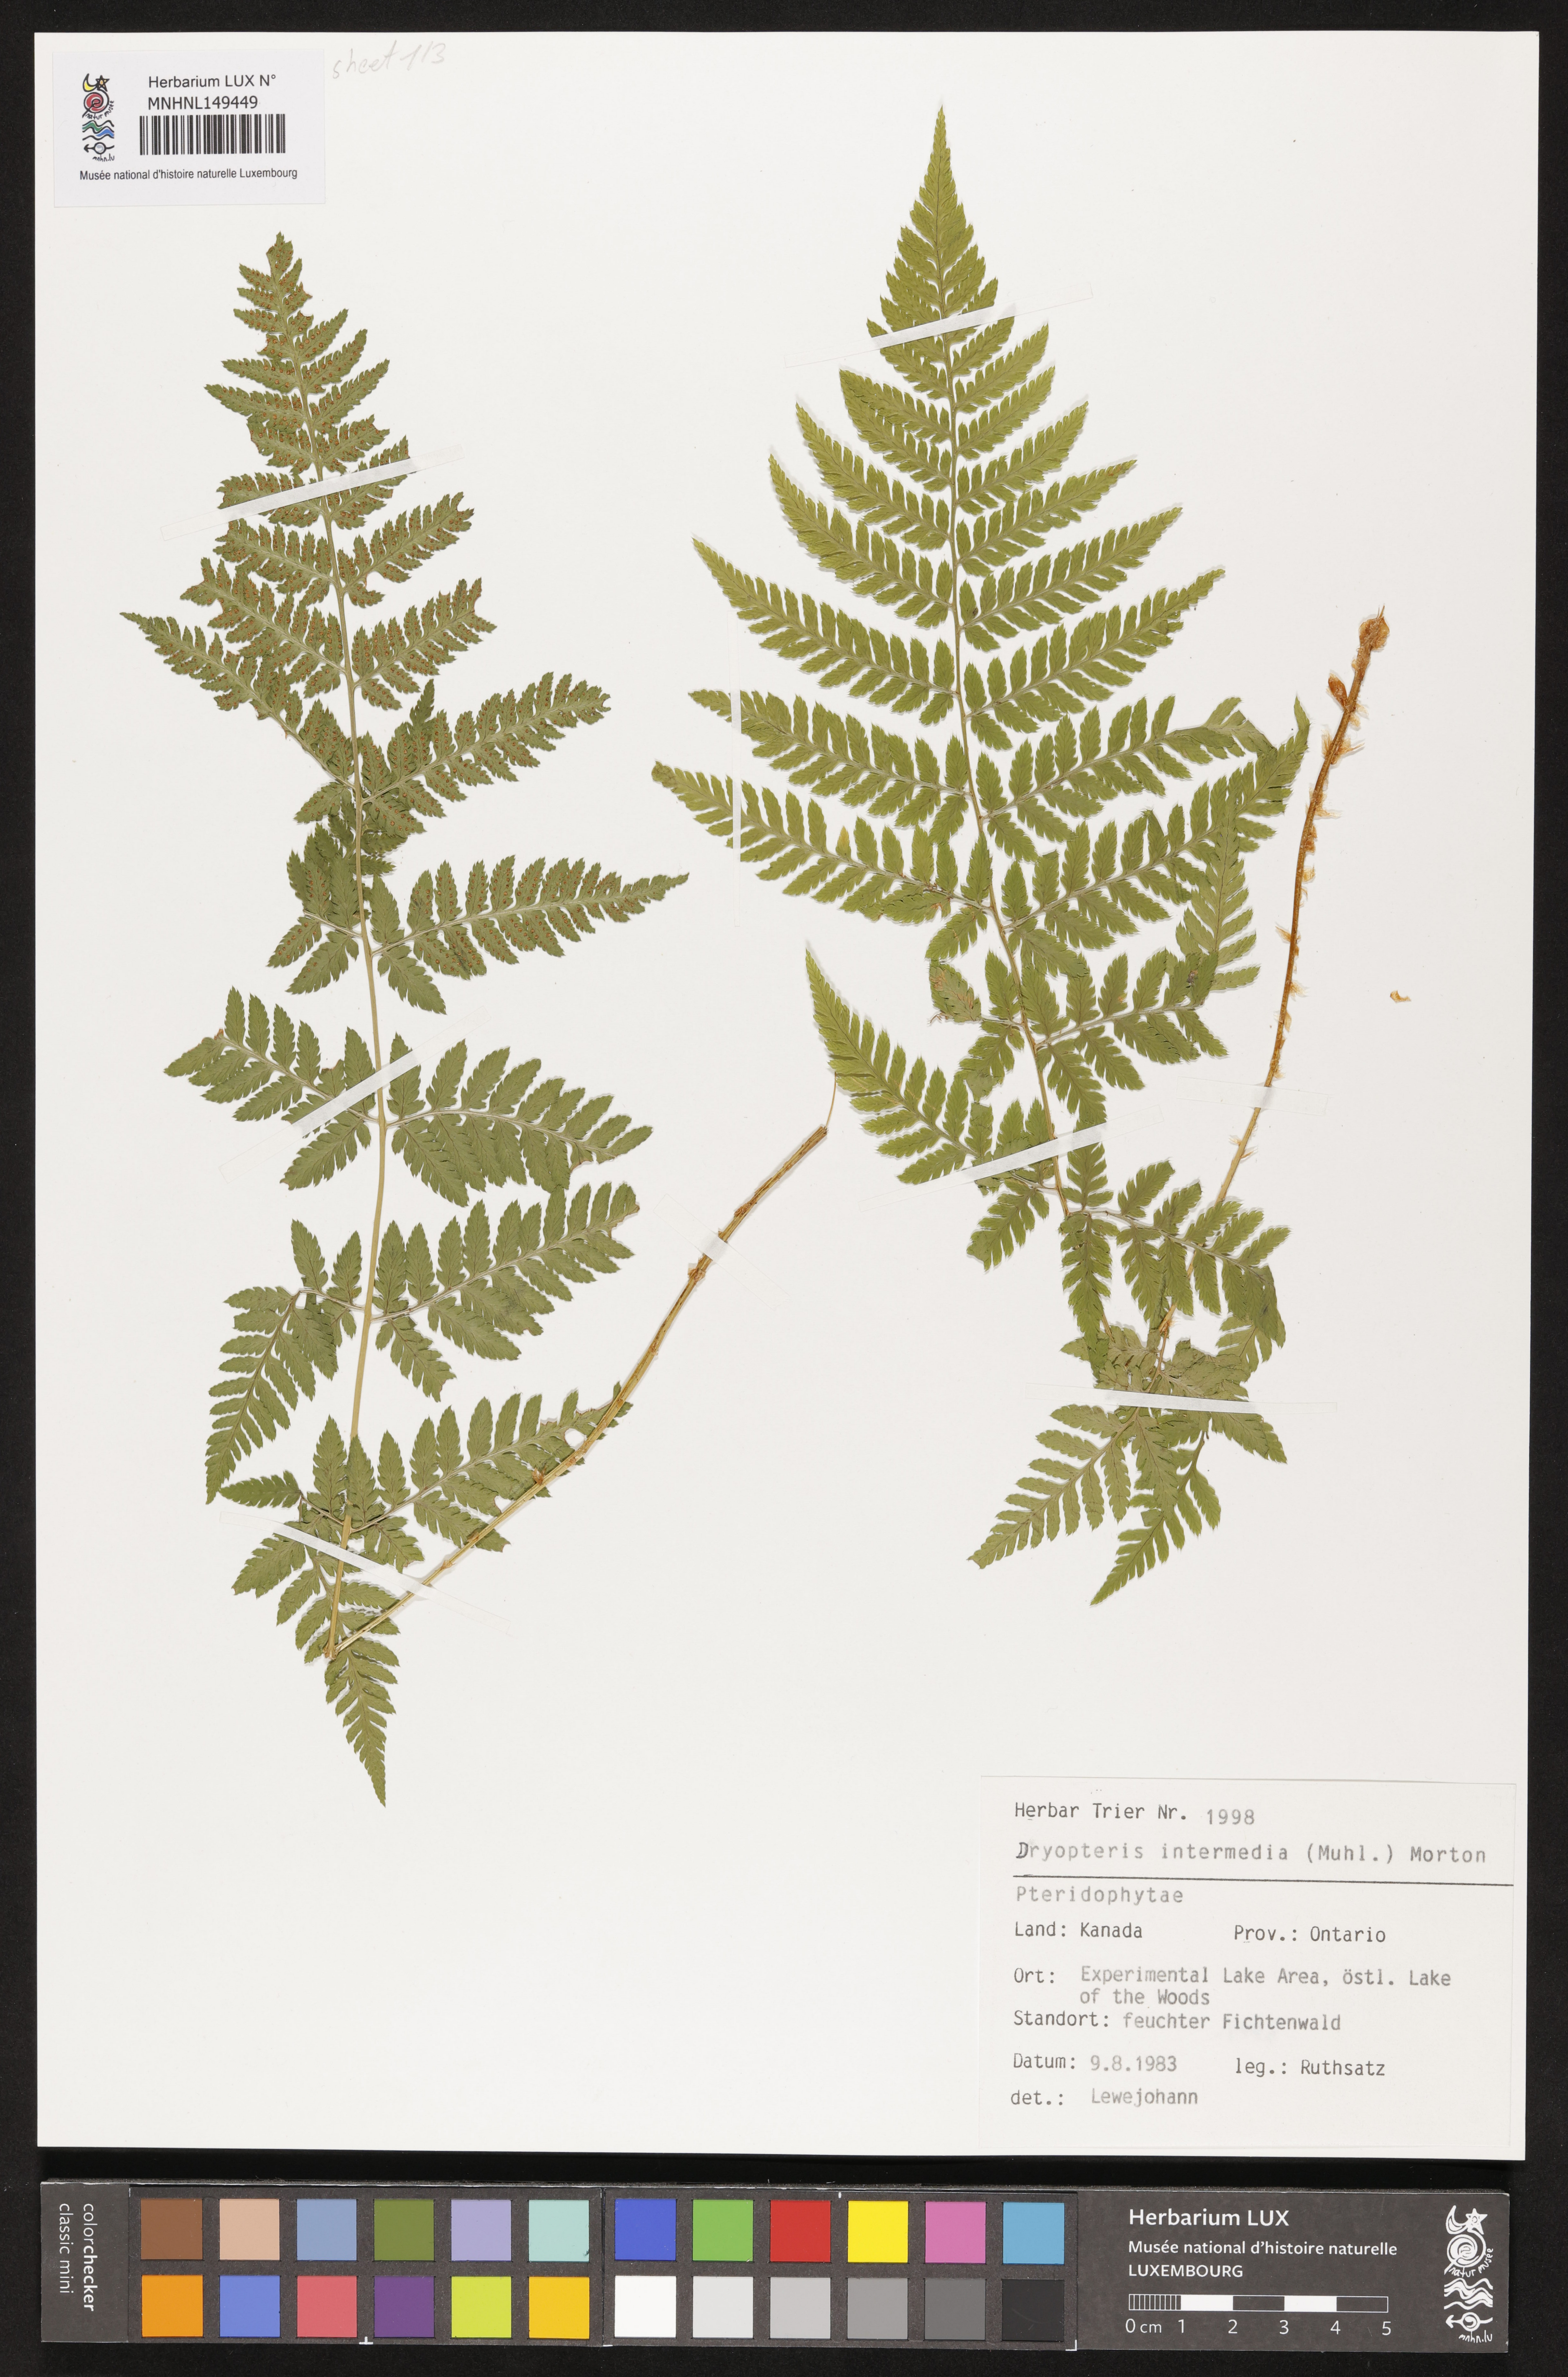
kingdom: Plantae
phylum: Tracheophyta
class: Polypodiopsida
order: Polypodiales
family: Dryopteridaceae
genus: Dryopteris
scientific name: Dryopteris intermedia
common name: Evergreen wood fern
